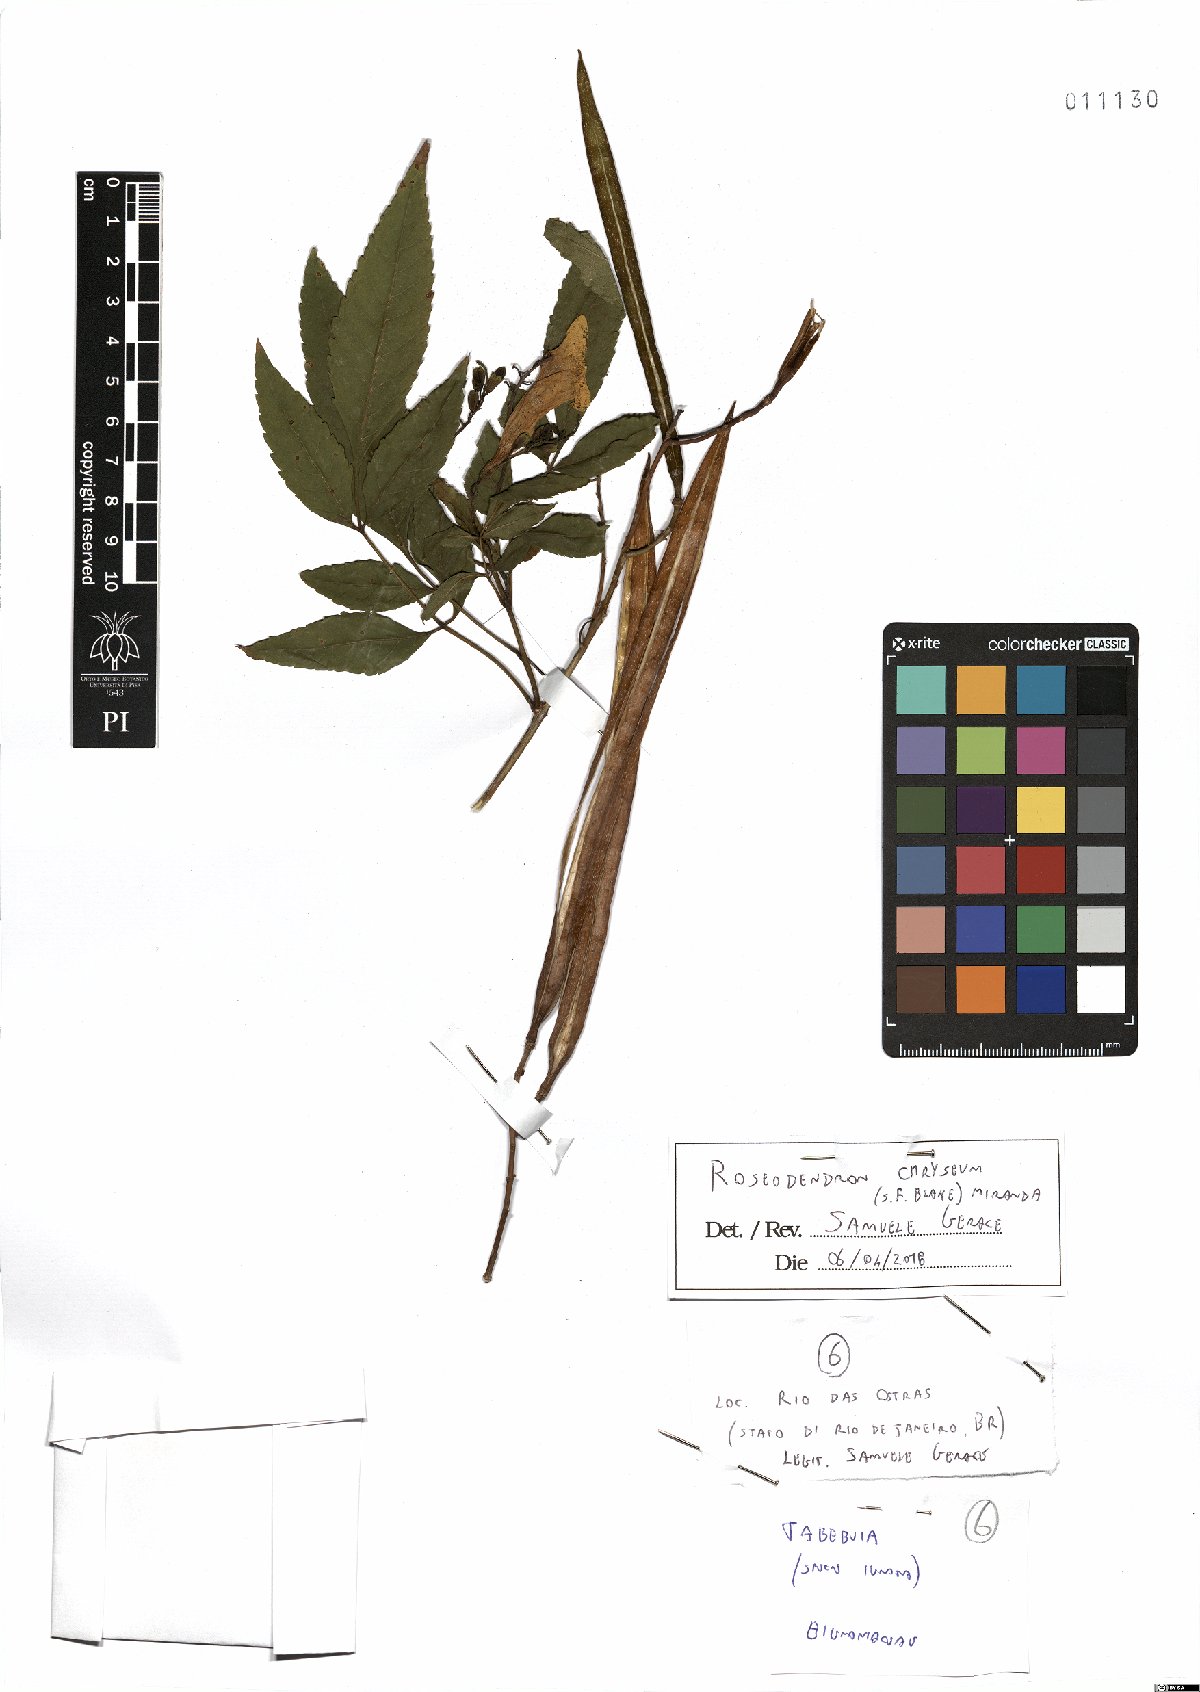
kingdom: Plantae
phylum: Tracheophyta
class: Magnoliopsida
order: Lamiales
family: Bignoniaceae
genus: Roseodendron
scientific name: Roseodendron chryseum
